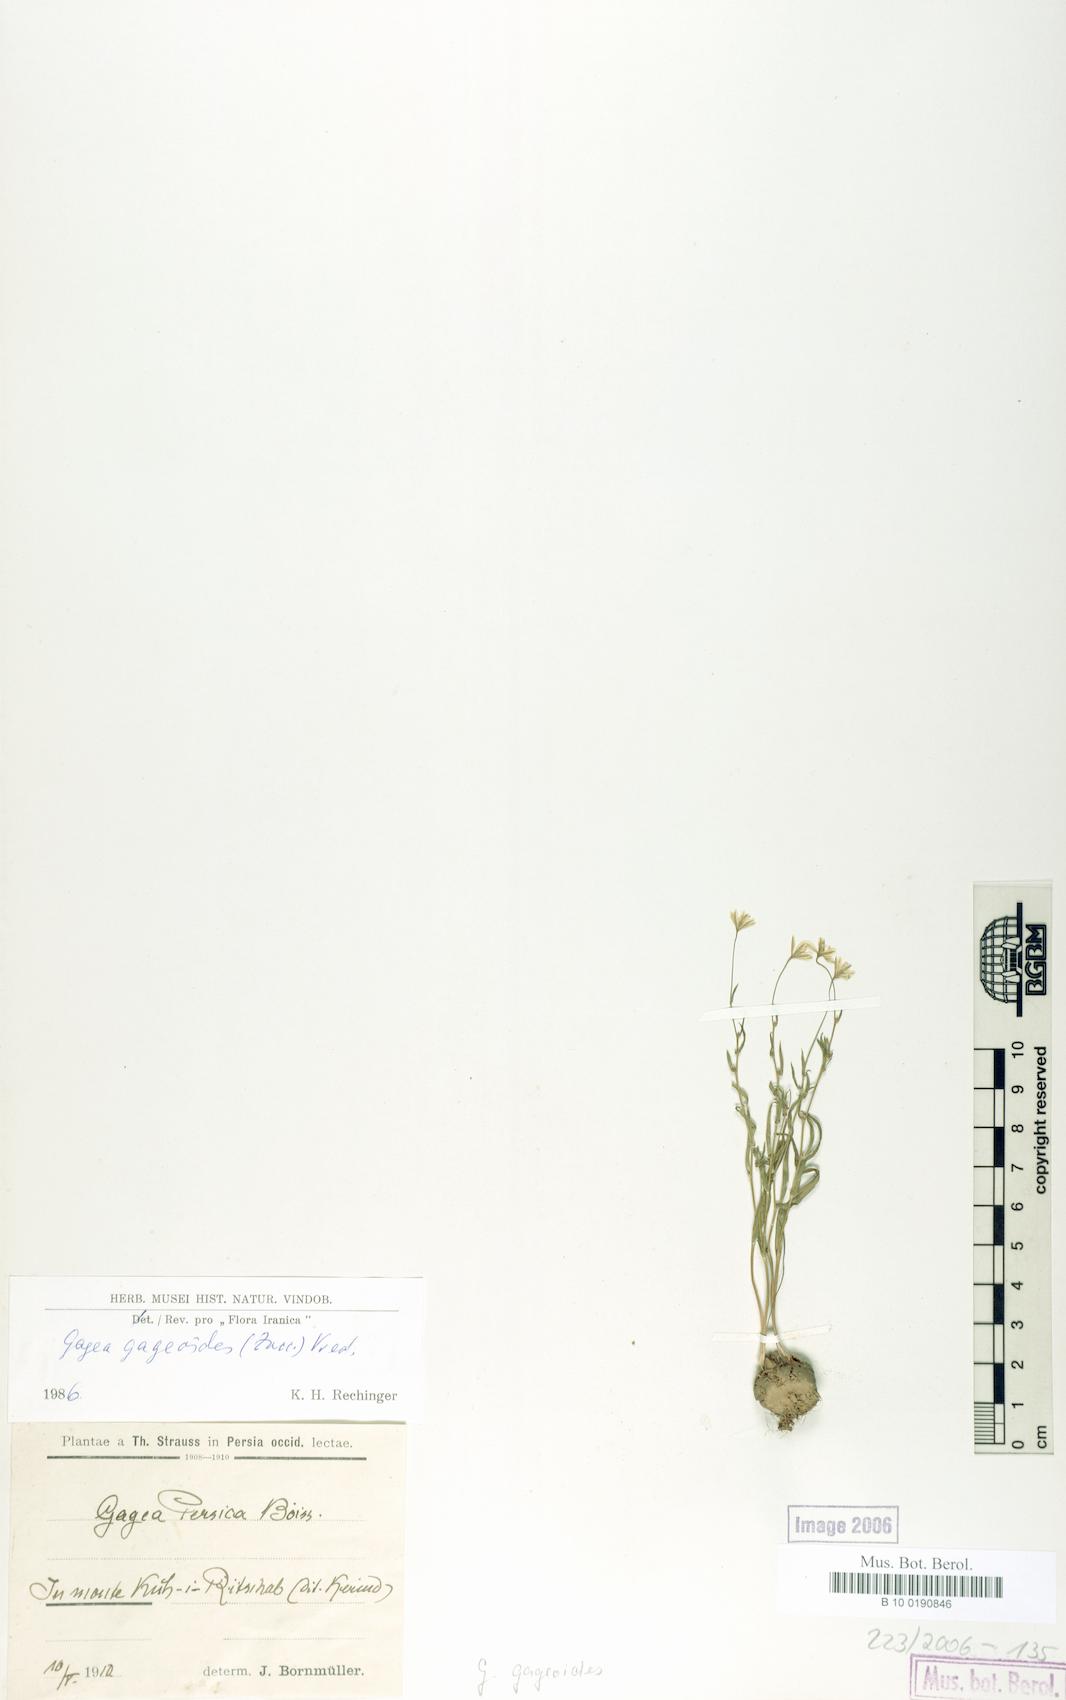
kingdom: Plantae
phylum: Tracheophyta
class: Liliopsida
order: Liliales
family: Liliaceae
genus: Gagea
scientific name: Gagea gageoides
